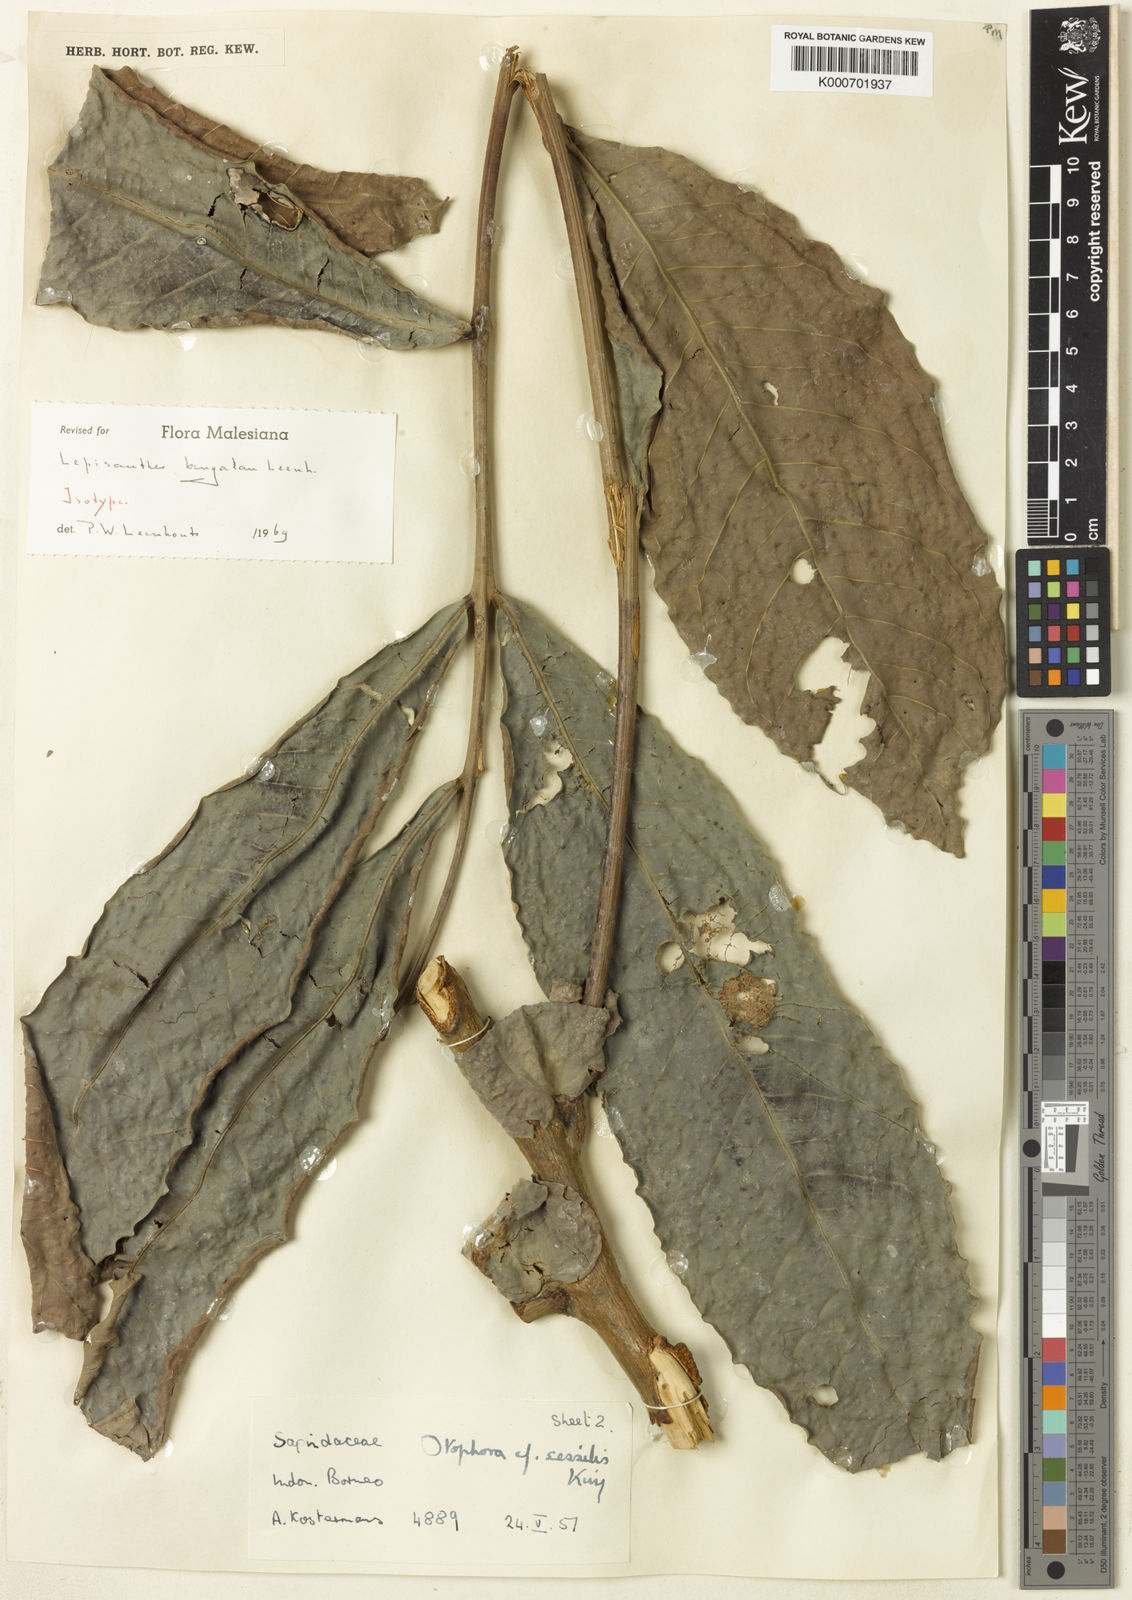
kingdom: Plantae
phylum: Tracheophyta
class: Magnoliopsida
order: Sapindales
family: Sapindaceae
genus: Lepisanthes
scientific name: Lepisanthes bengalan
